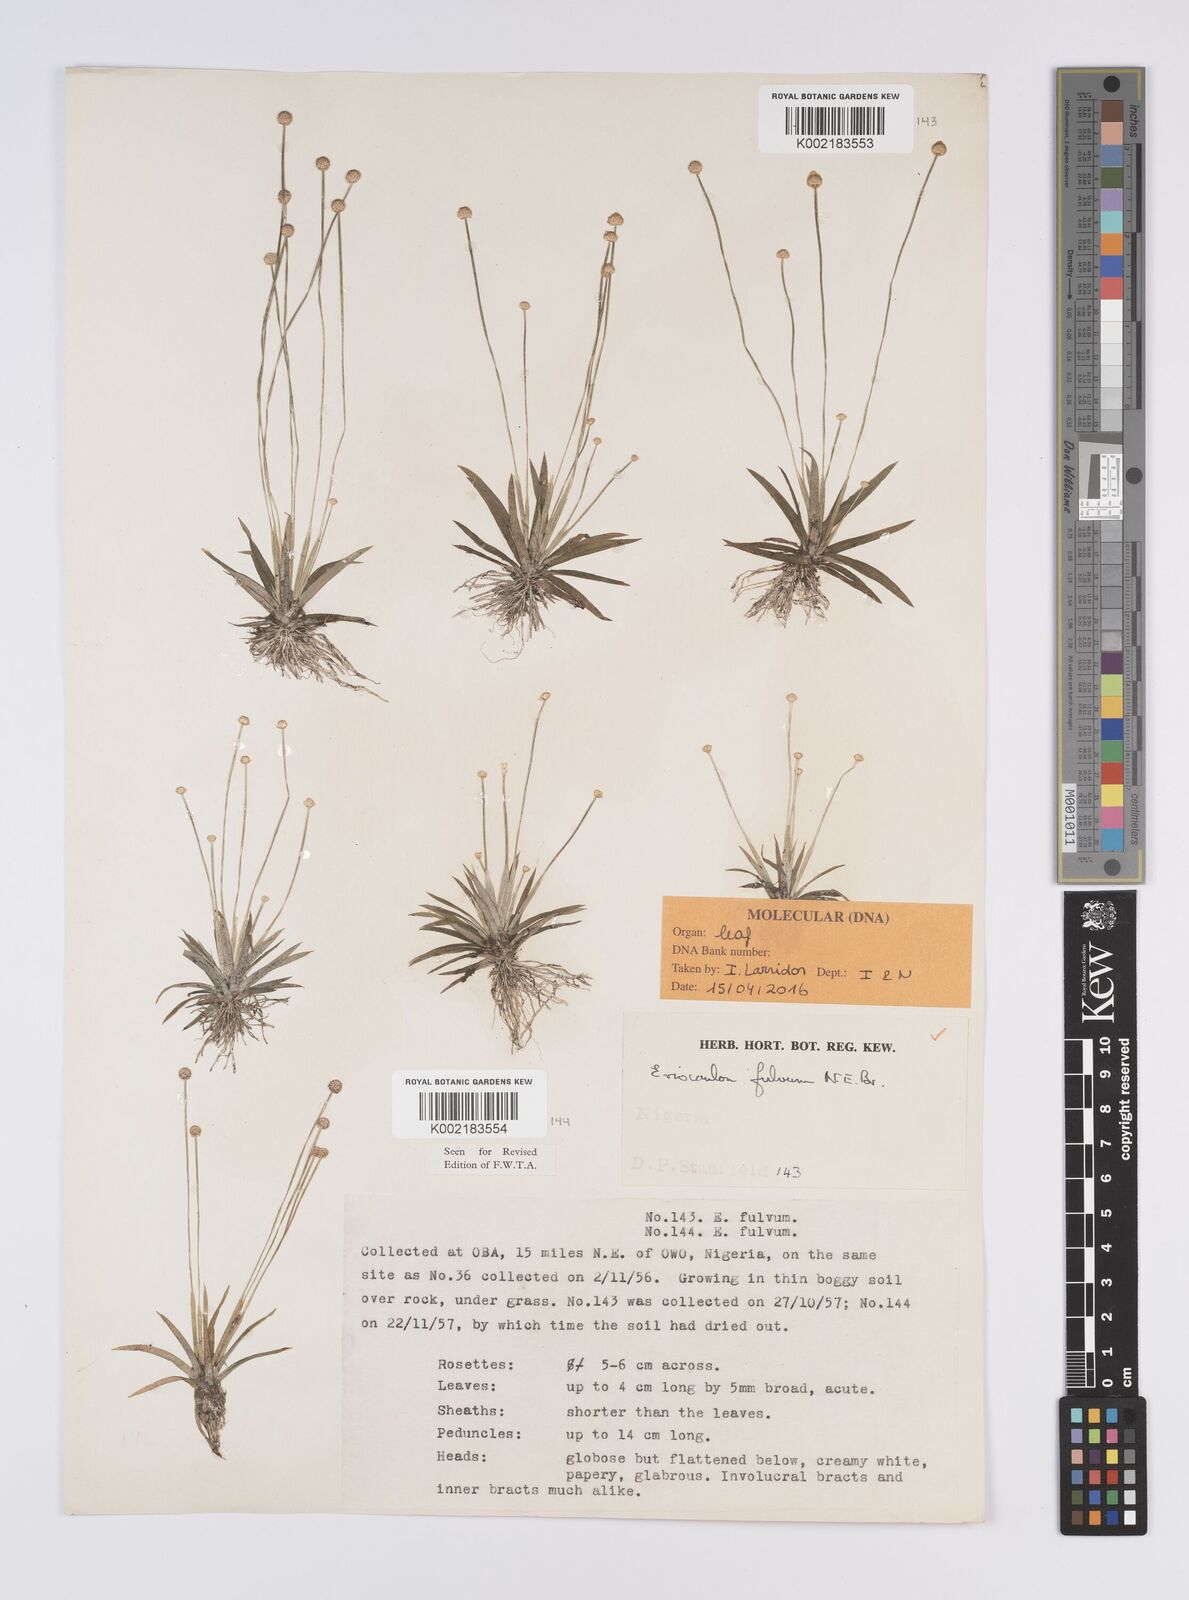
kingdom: Plantae
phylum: Tracheophyta
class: Liliopsida
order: Poales
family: Eriocaulaceae
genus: Eriocaulon
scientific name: Eriocaulon fulvum
